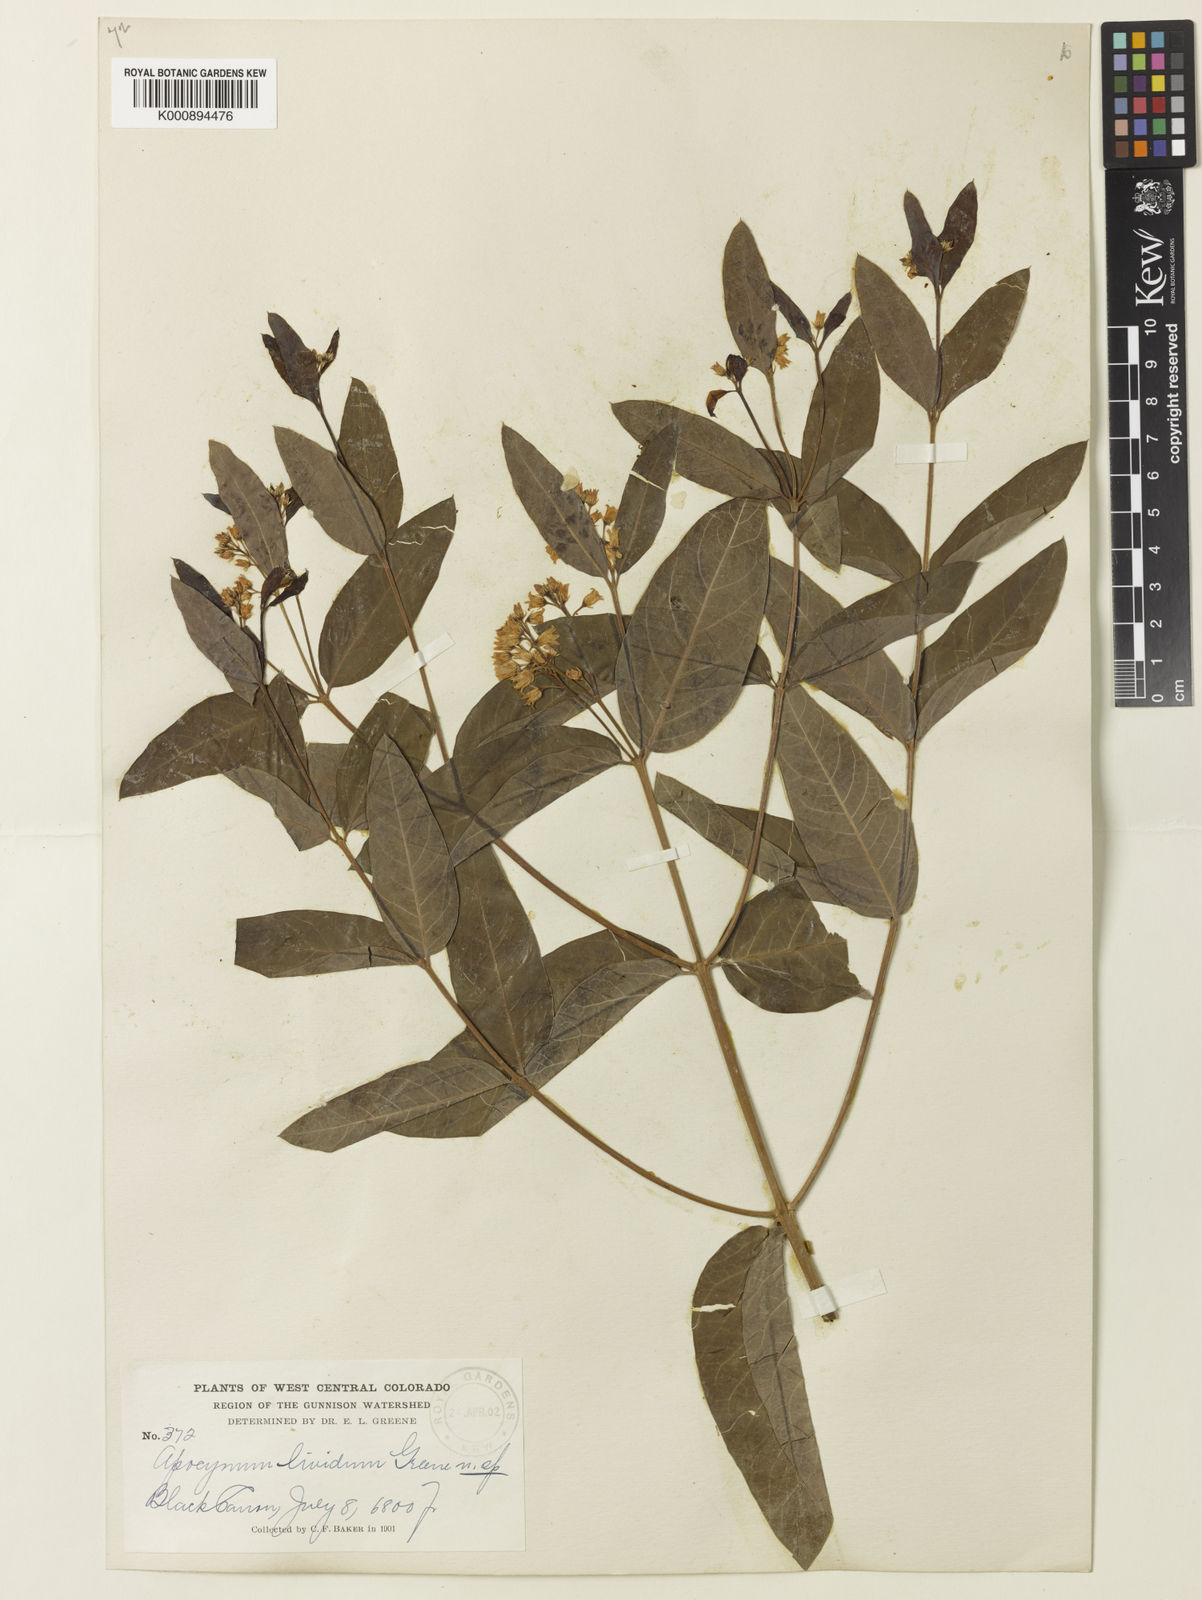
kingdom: Plantae
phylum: Tracheophyta
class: Magnoliopsida
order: Gentianales
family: Apocynaceae
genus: Apocynum
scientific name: Apocynum floribundum
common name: Hybrid dogbane
